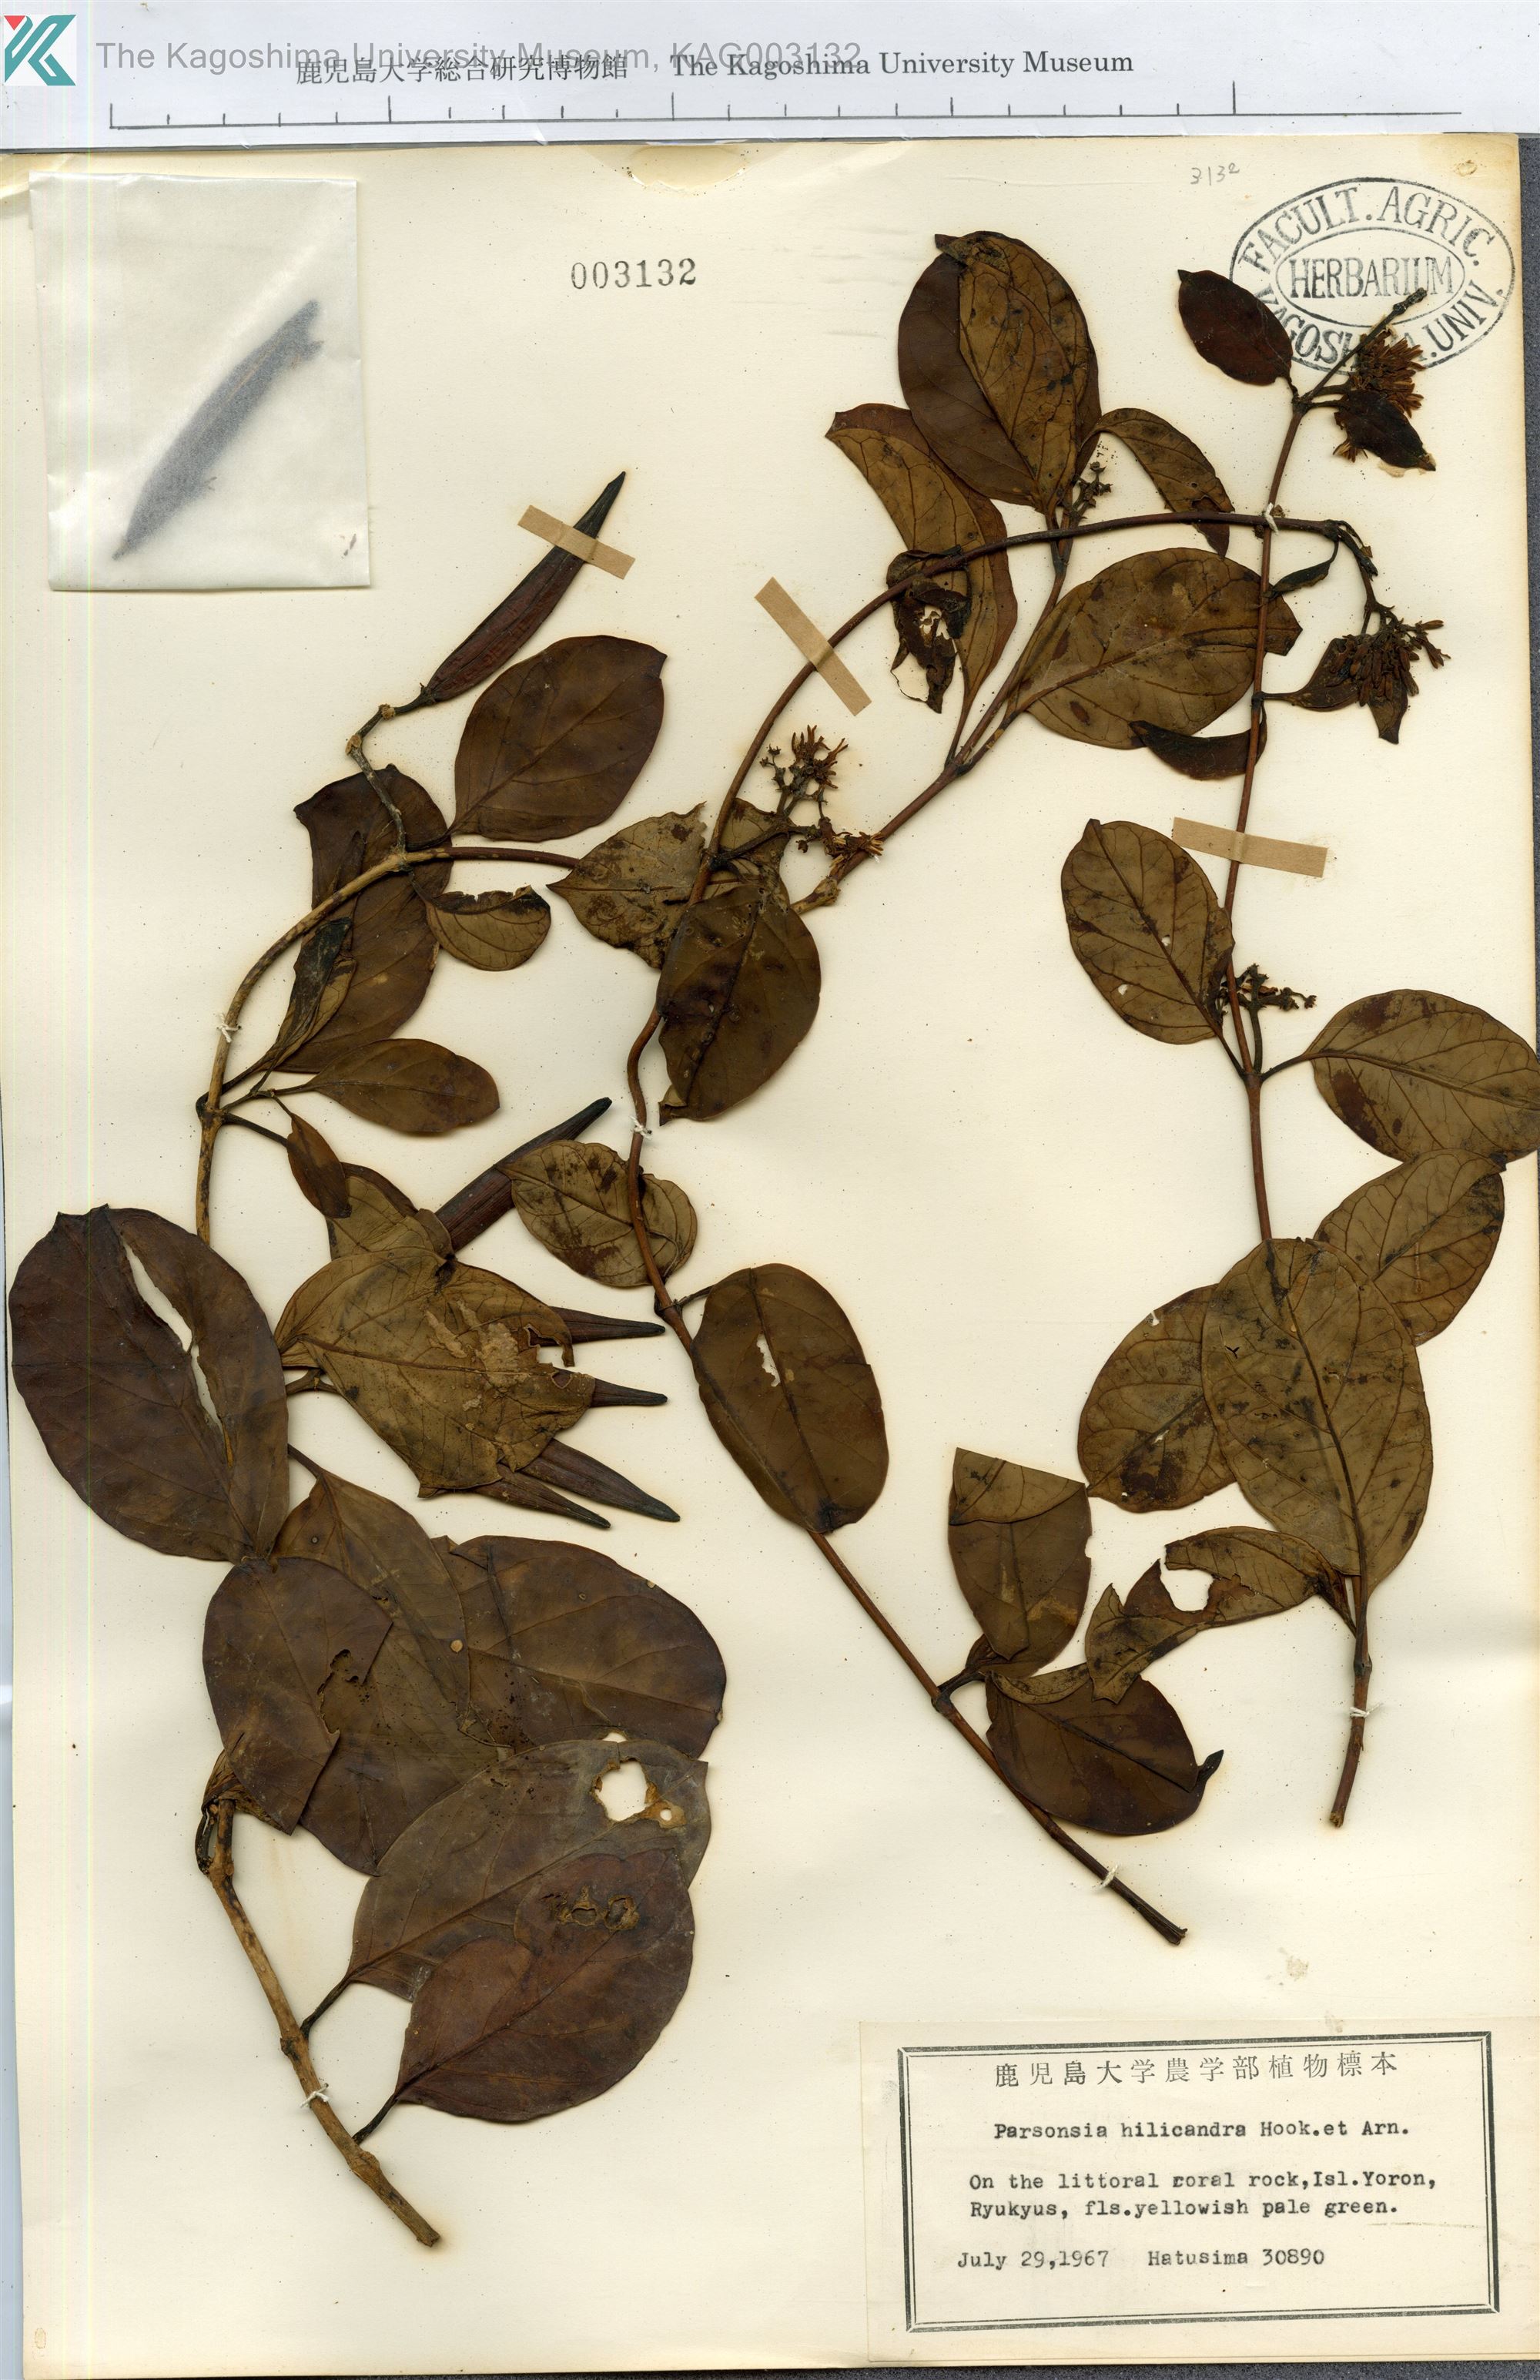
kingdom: Plantae
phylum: Tracheophyta
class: Magnoliopsida
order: Gentianales
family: Apocynaceae
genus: Parsonsia
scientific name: Parsonsia alboflavescens
